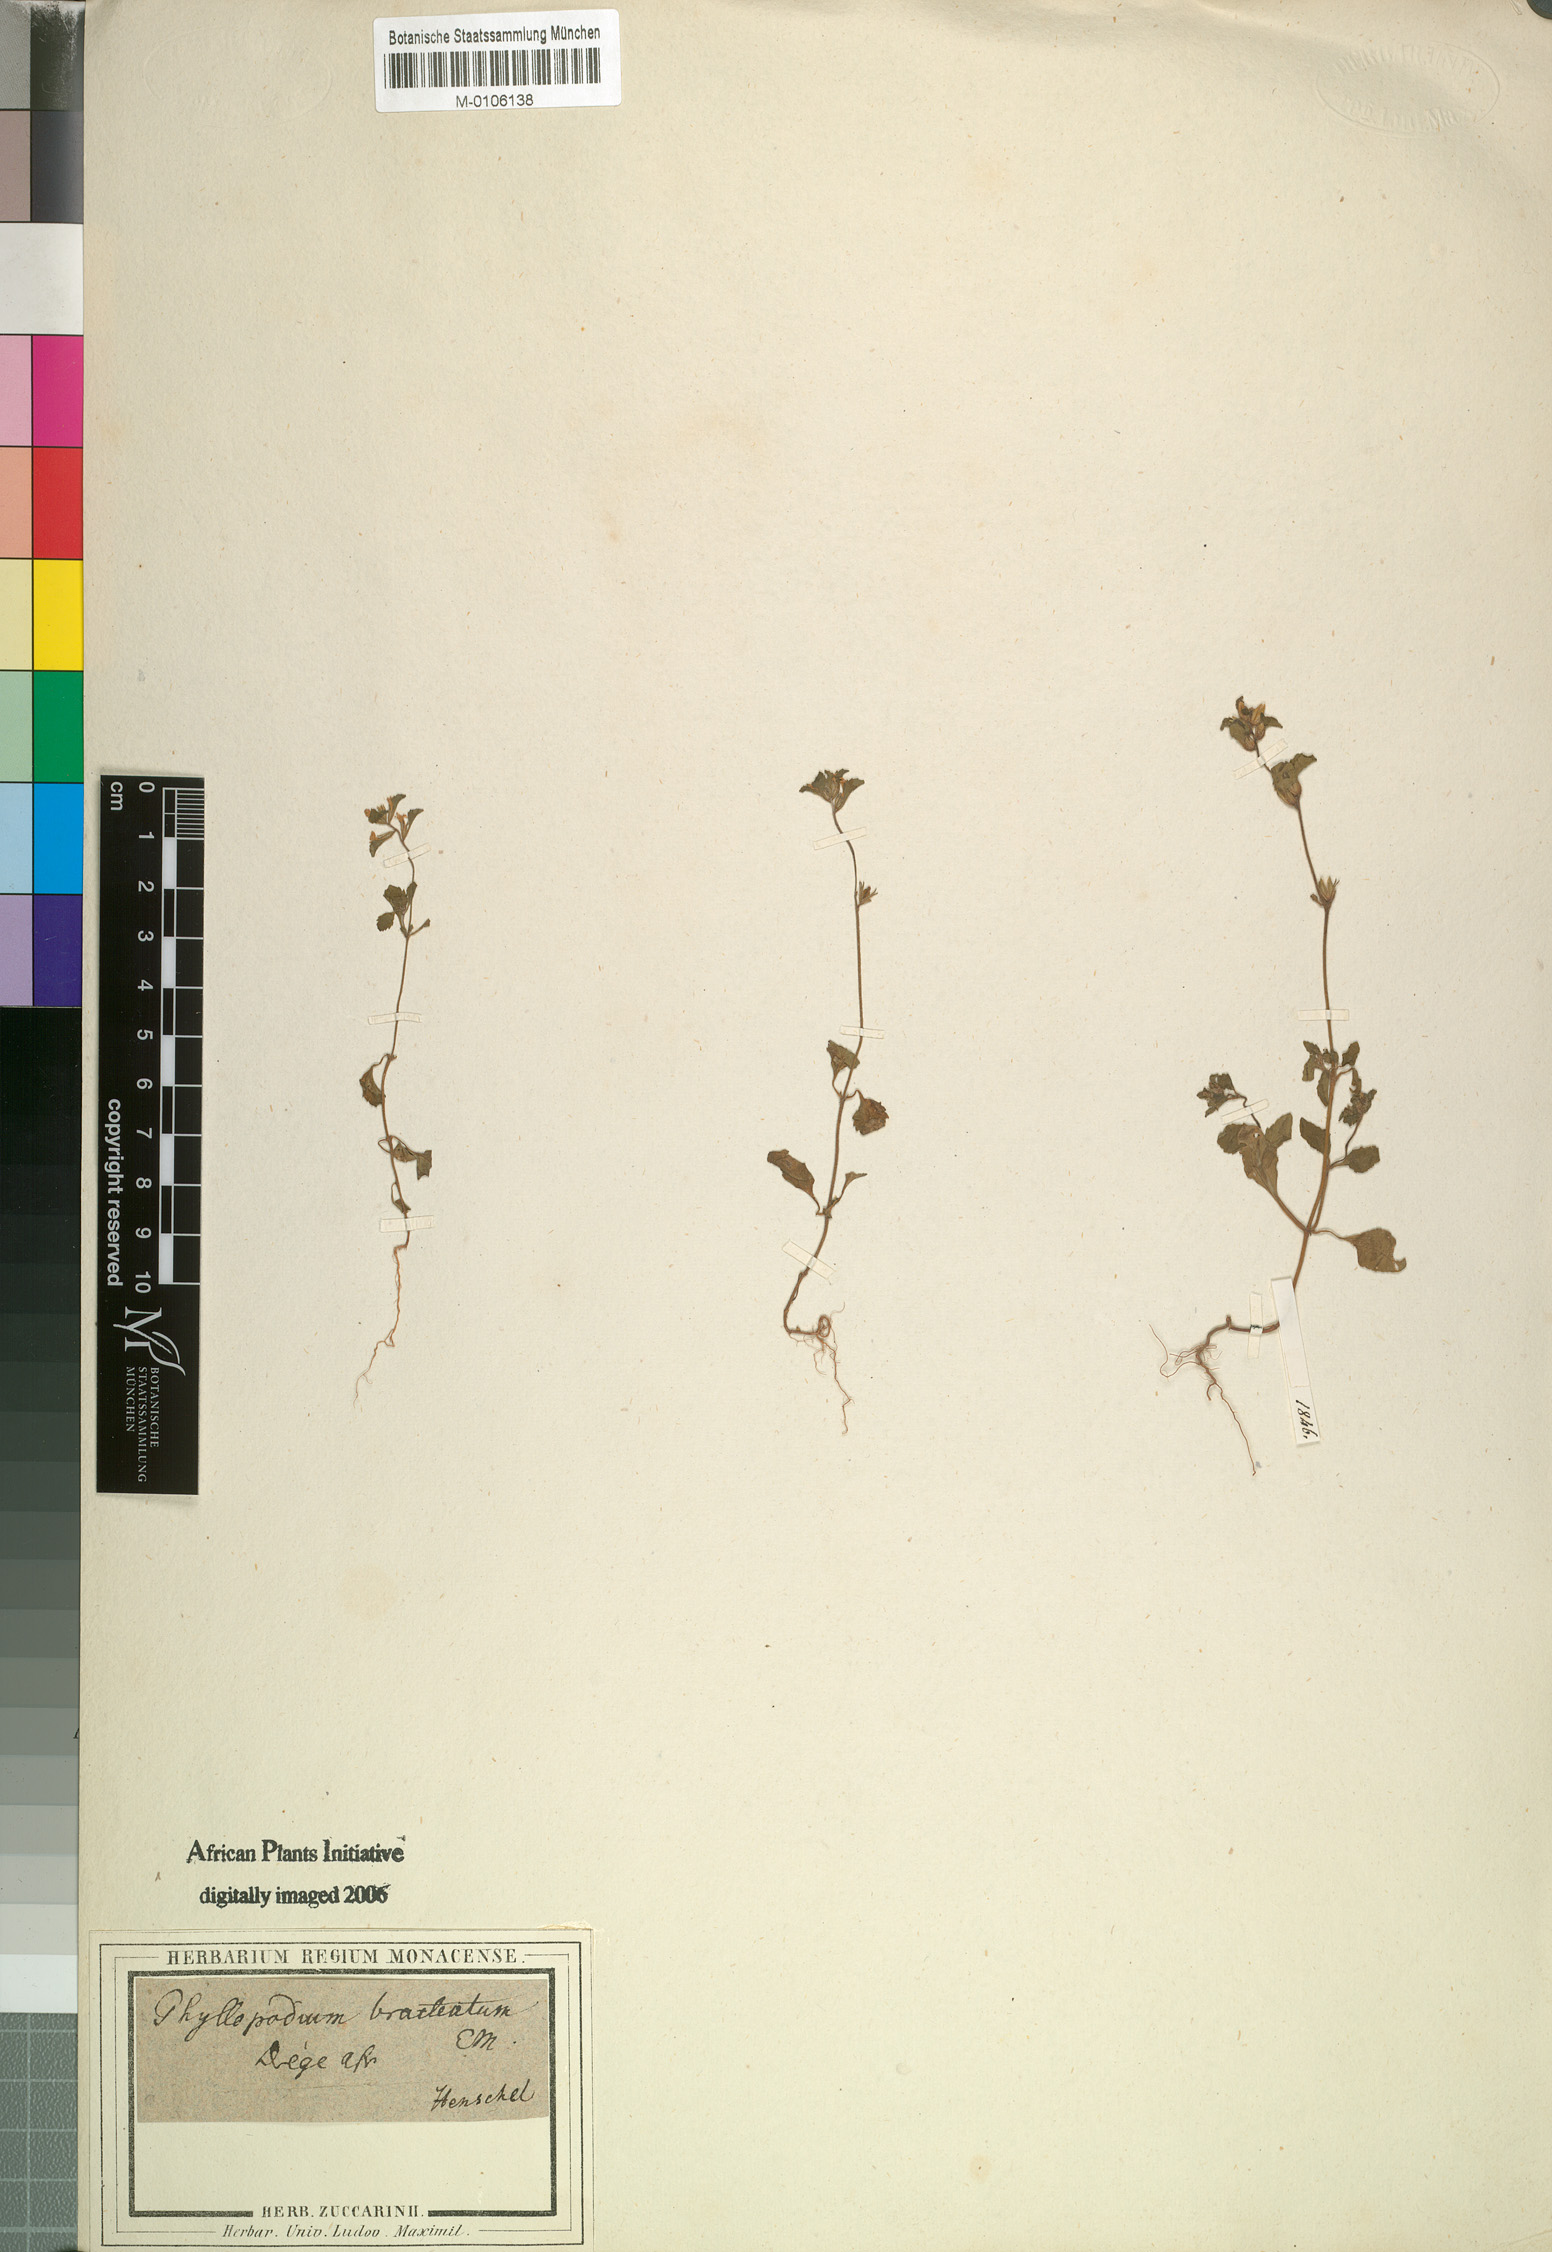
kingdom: Plantae
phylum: Tracheophyta
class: Magnoliopsida
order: Lamiales
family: Scrophulariaceae
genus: Phyllopodium
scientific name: Phyllopodium bracteatum
